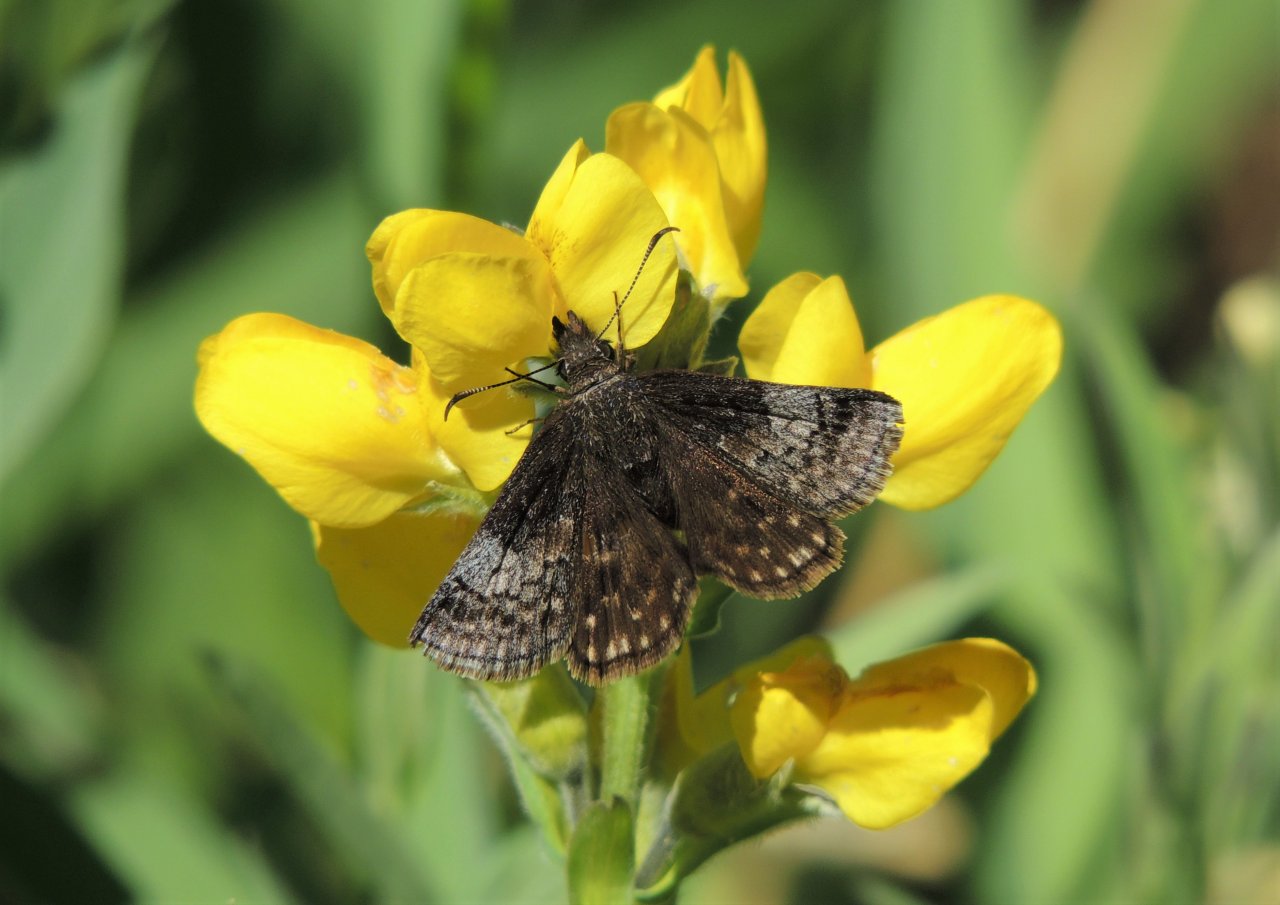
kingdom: Animalia
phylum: Arthropoda
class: Insecta
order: Lepidoptera
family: Hesperiidae
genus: Erynnis
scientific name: Erynnis icelus
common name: Dreamy Duskywing
